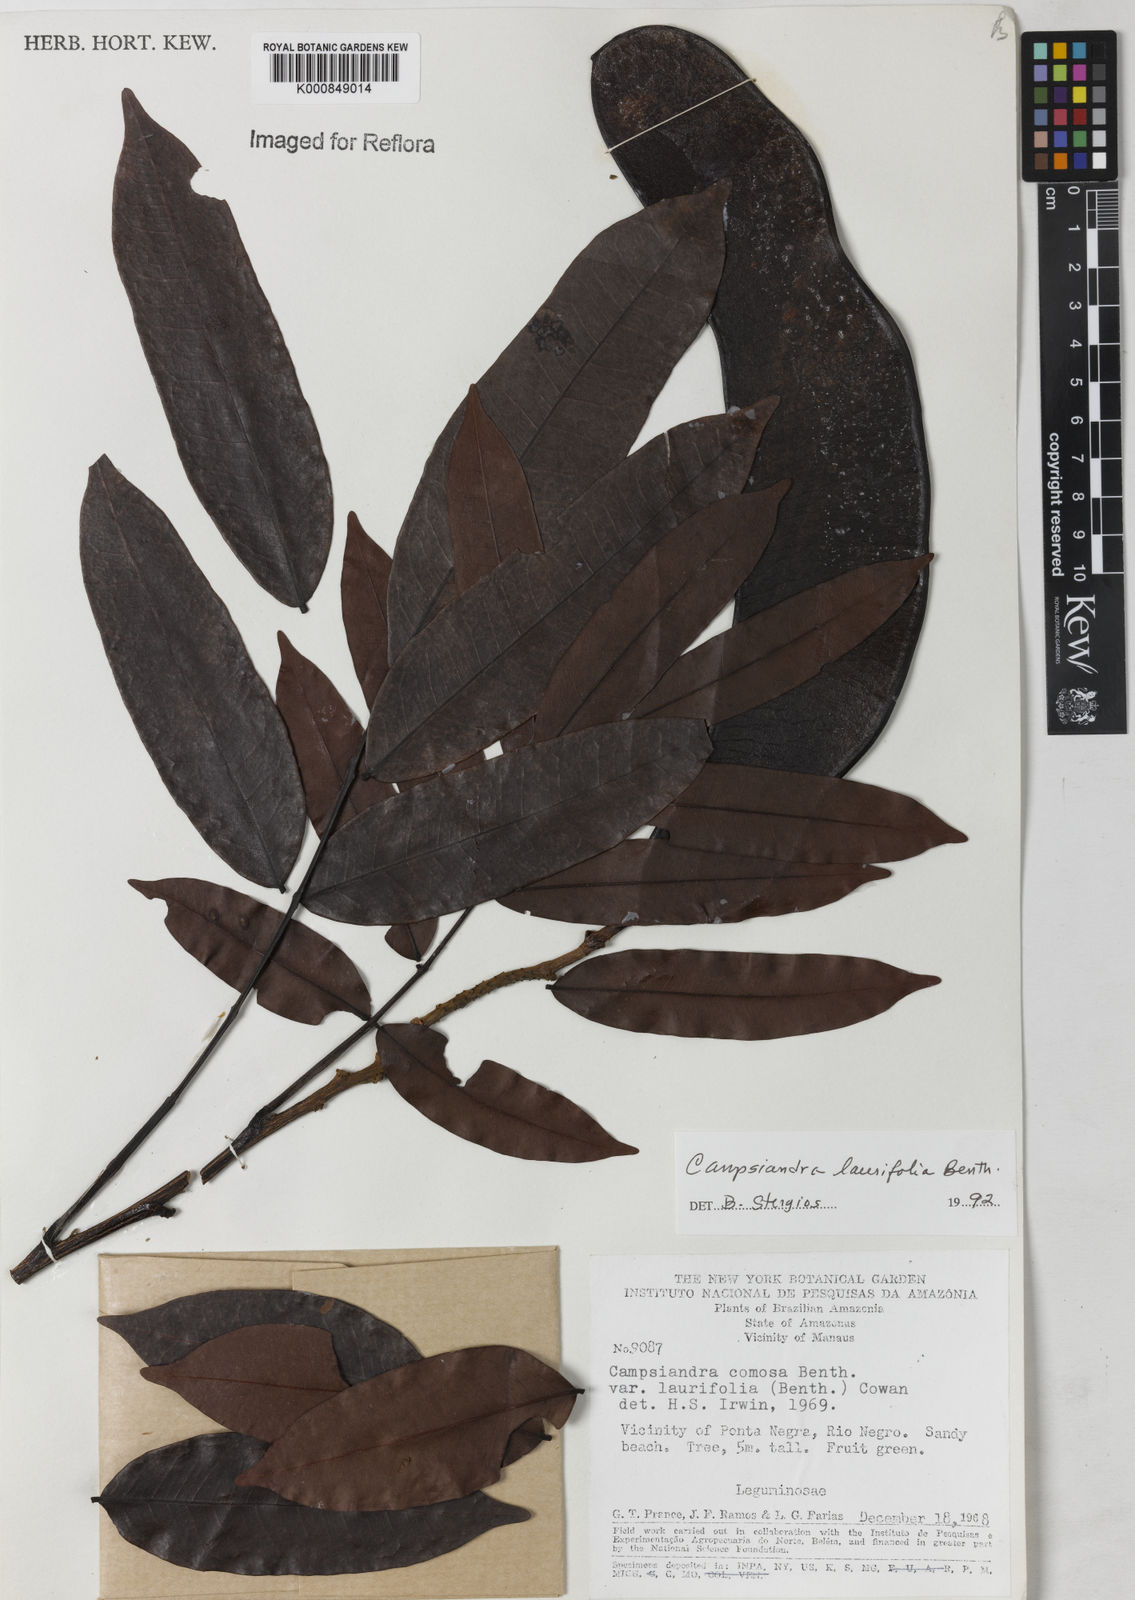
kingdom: Plantae
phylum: Tracheophyta
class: Magnoliopsida
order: Fabales
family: Fabaceae
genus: Campsiandra
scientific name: Campsiandra laurifolia
